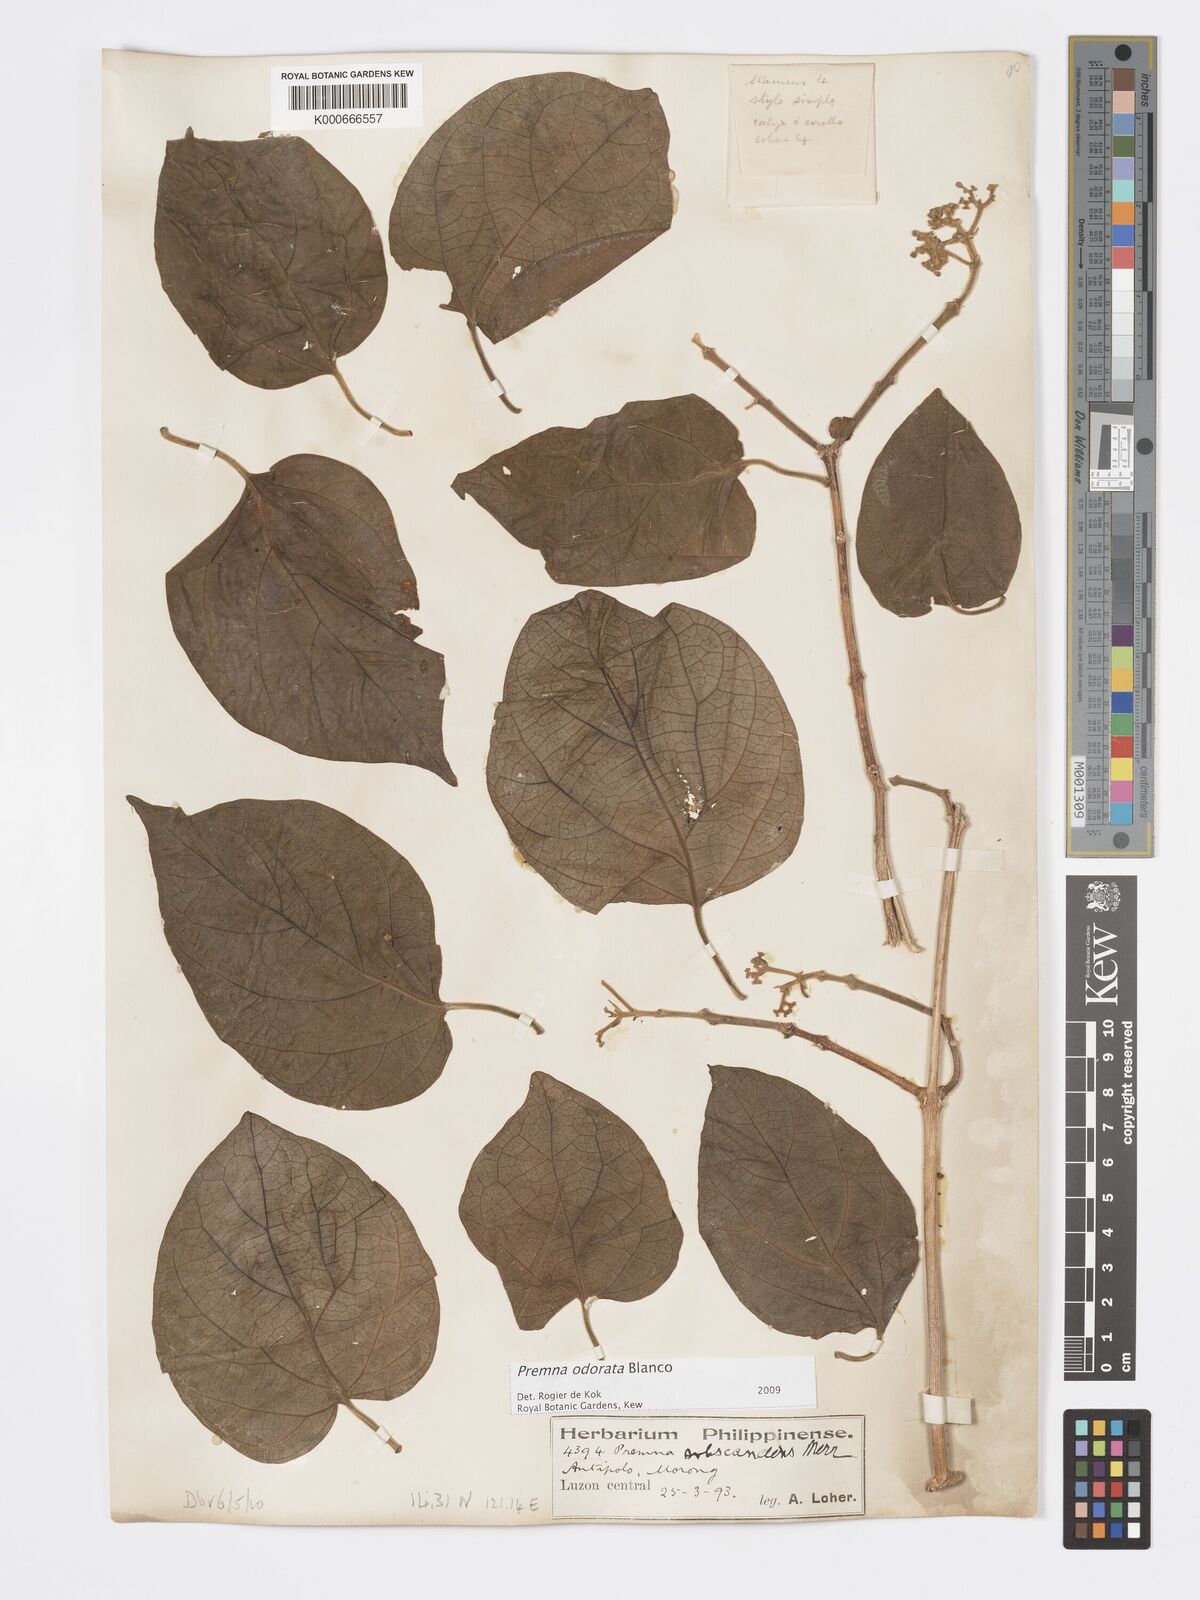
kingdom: Plantae
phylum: Tracheophyta
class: Magnoliopsida
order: Lamiales
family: Lamiaceae
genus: Premna
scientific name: Premna odorata
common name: Fragrant premna
